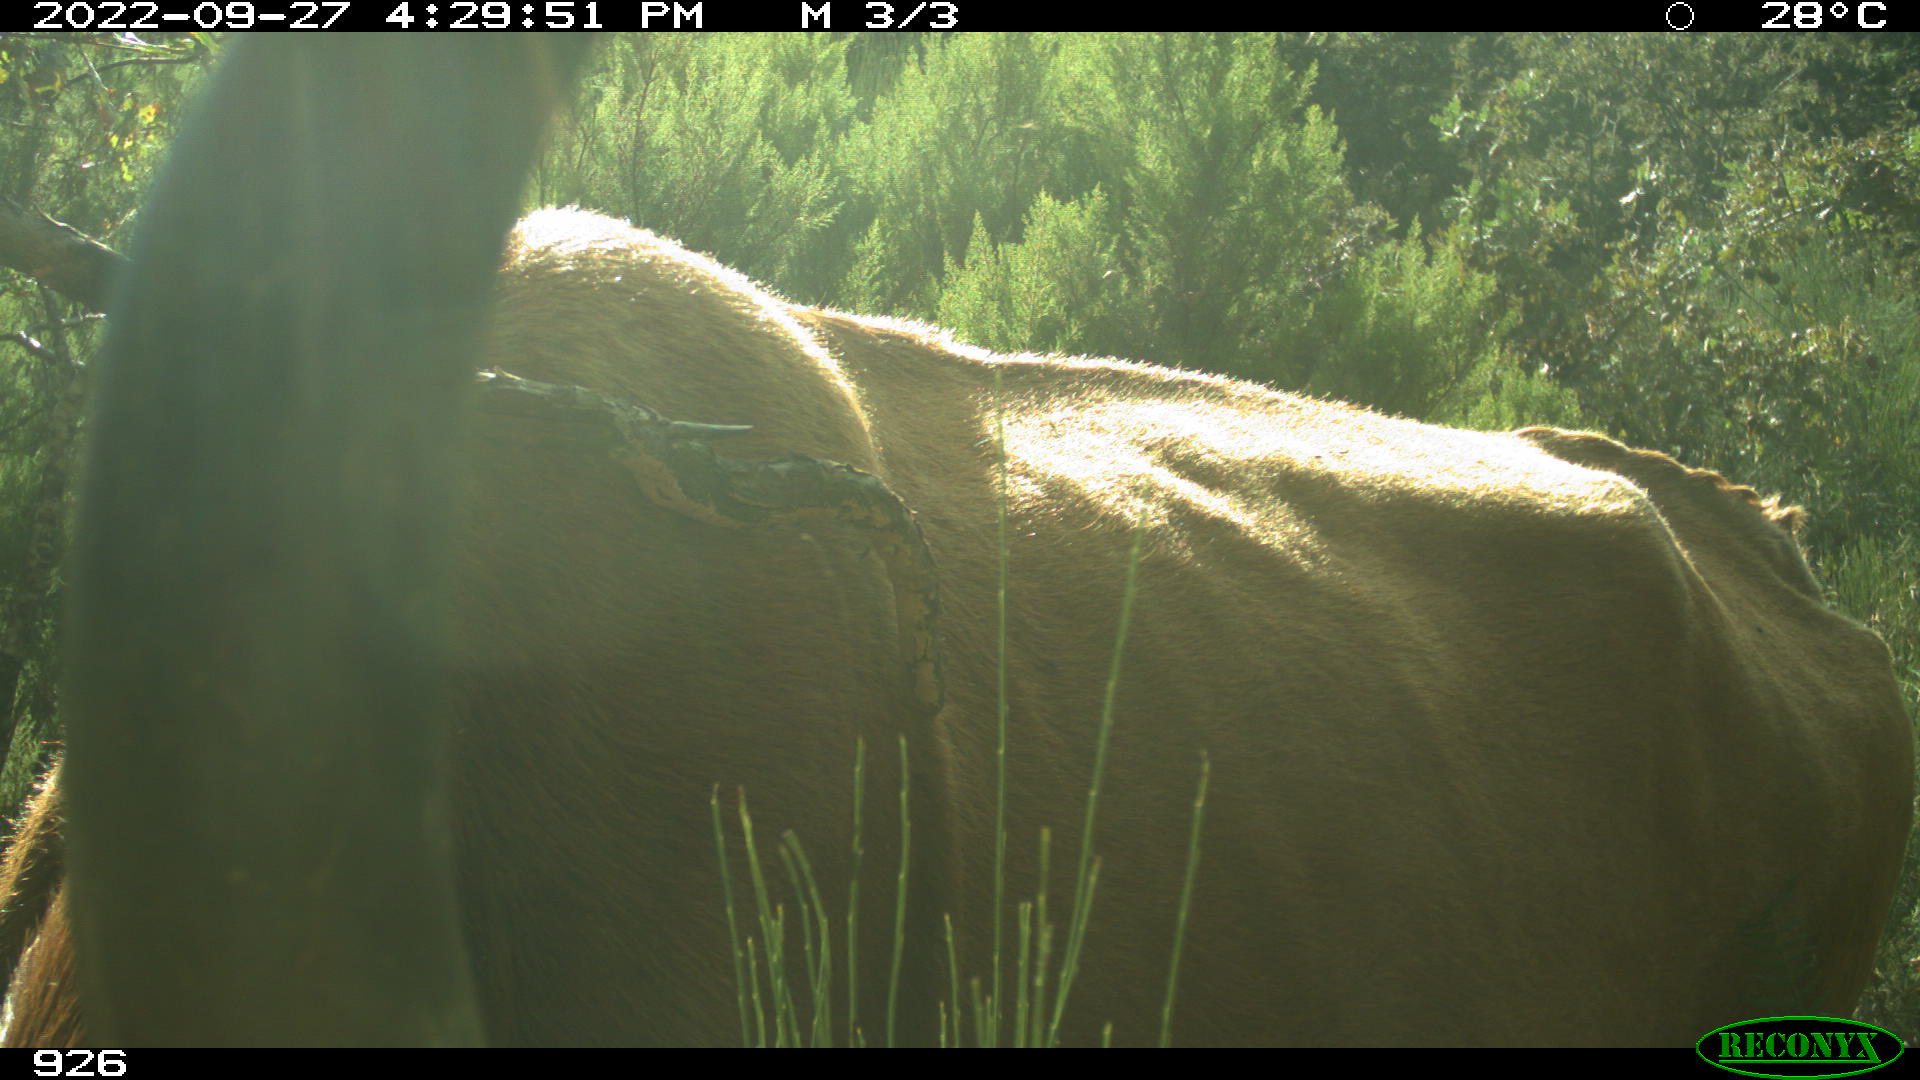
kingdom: Animalia
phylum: Chordata
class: Mammalia
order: Artiodactyla
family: Bovidae
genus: Bos
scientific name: Bos taurus
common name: Domesticated cattle
